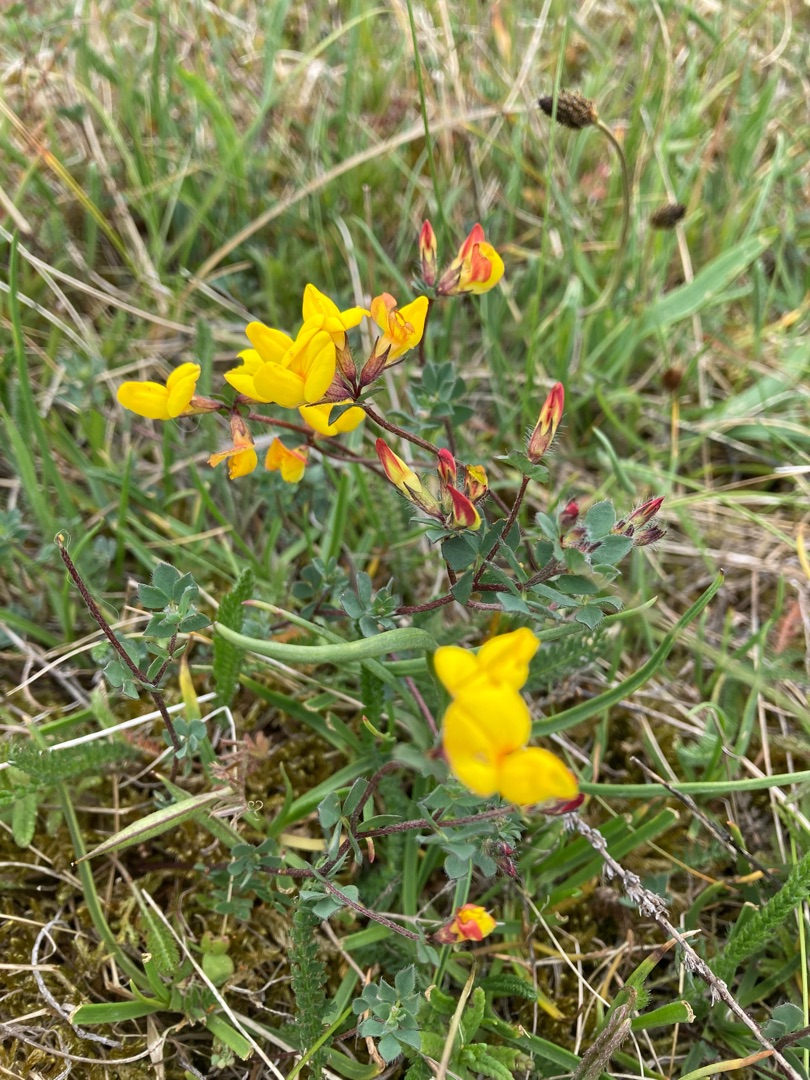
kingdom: Plantae
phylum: Tracheophyta
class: Magnoliopsida
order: Fabales
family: Fabaceae
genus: Lotus
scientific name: Lotus corniculatus
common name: Almindelig kællingetand
